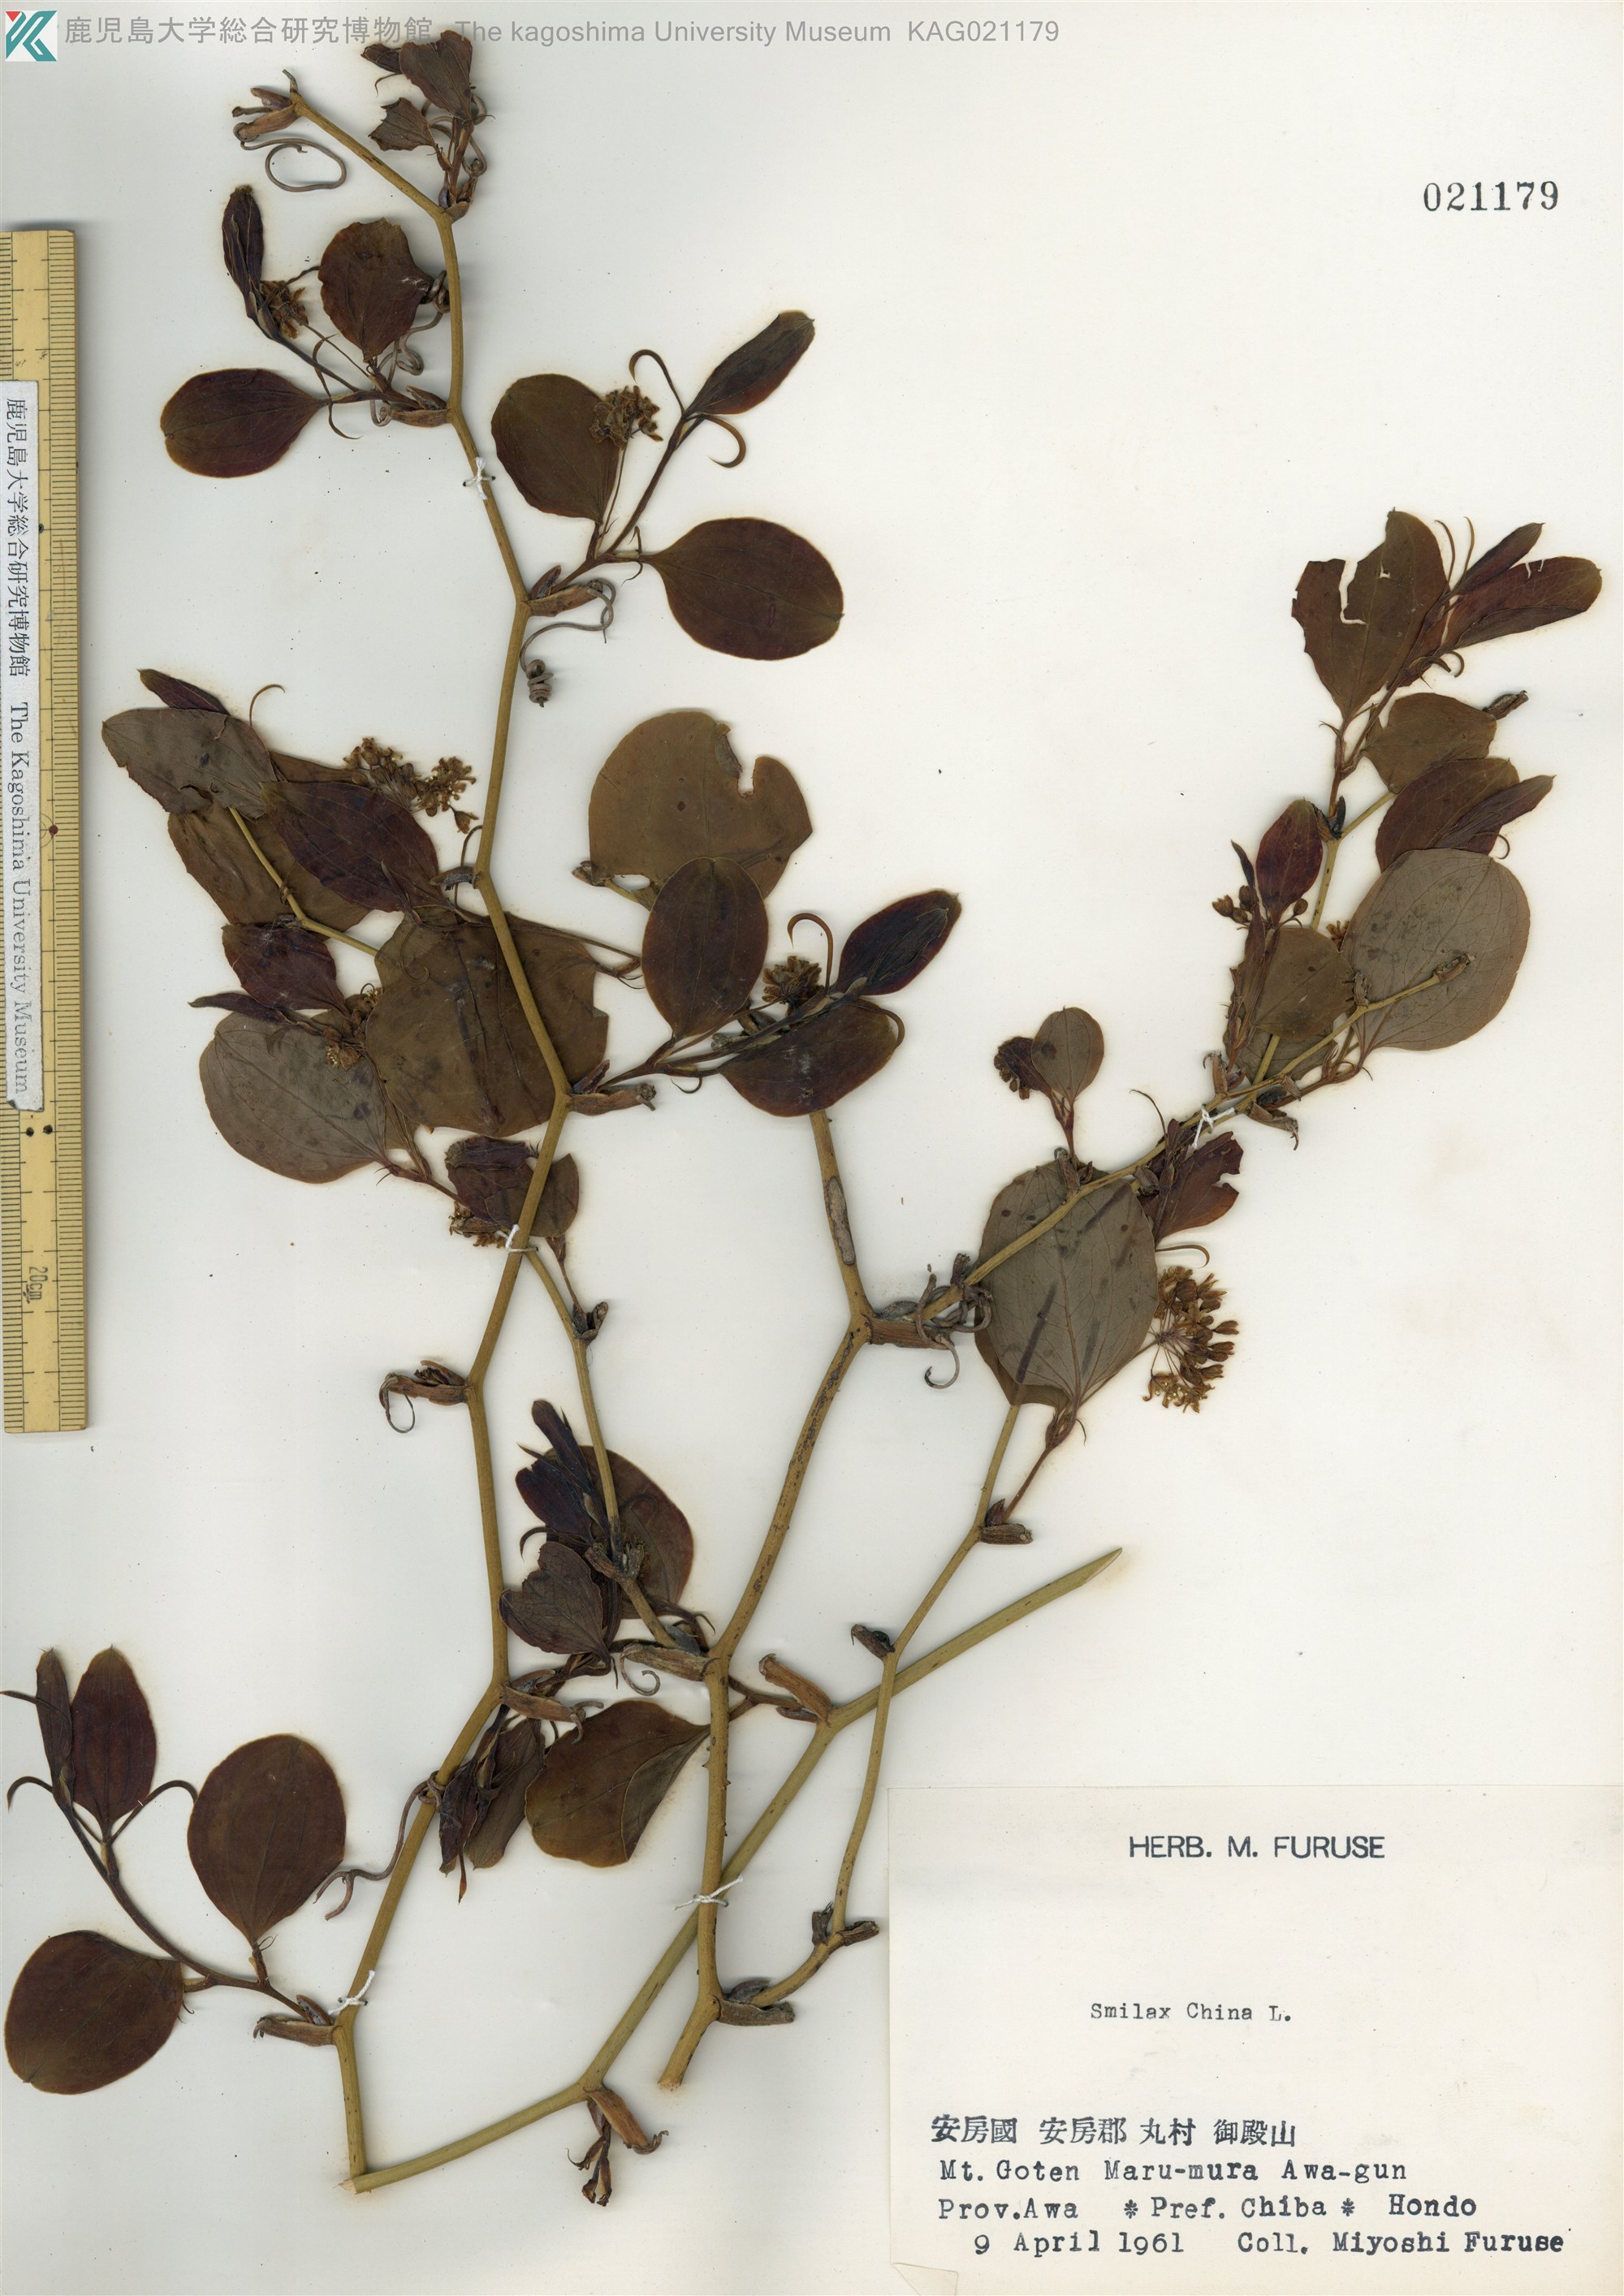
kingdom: Plantae
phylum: Tracheophyta
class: Liliopsida
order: Liliales
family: Smilacaceae
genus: Smilax
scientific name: Smilax china
